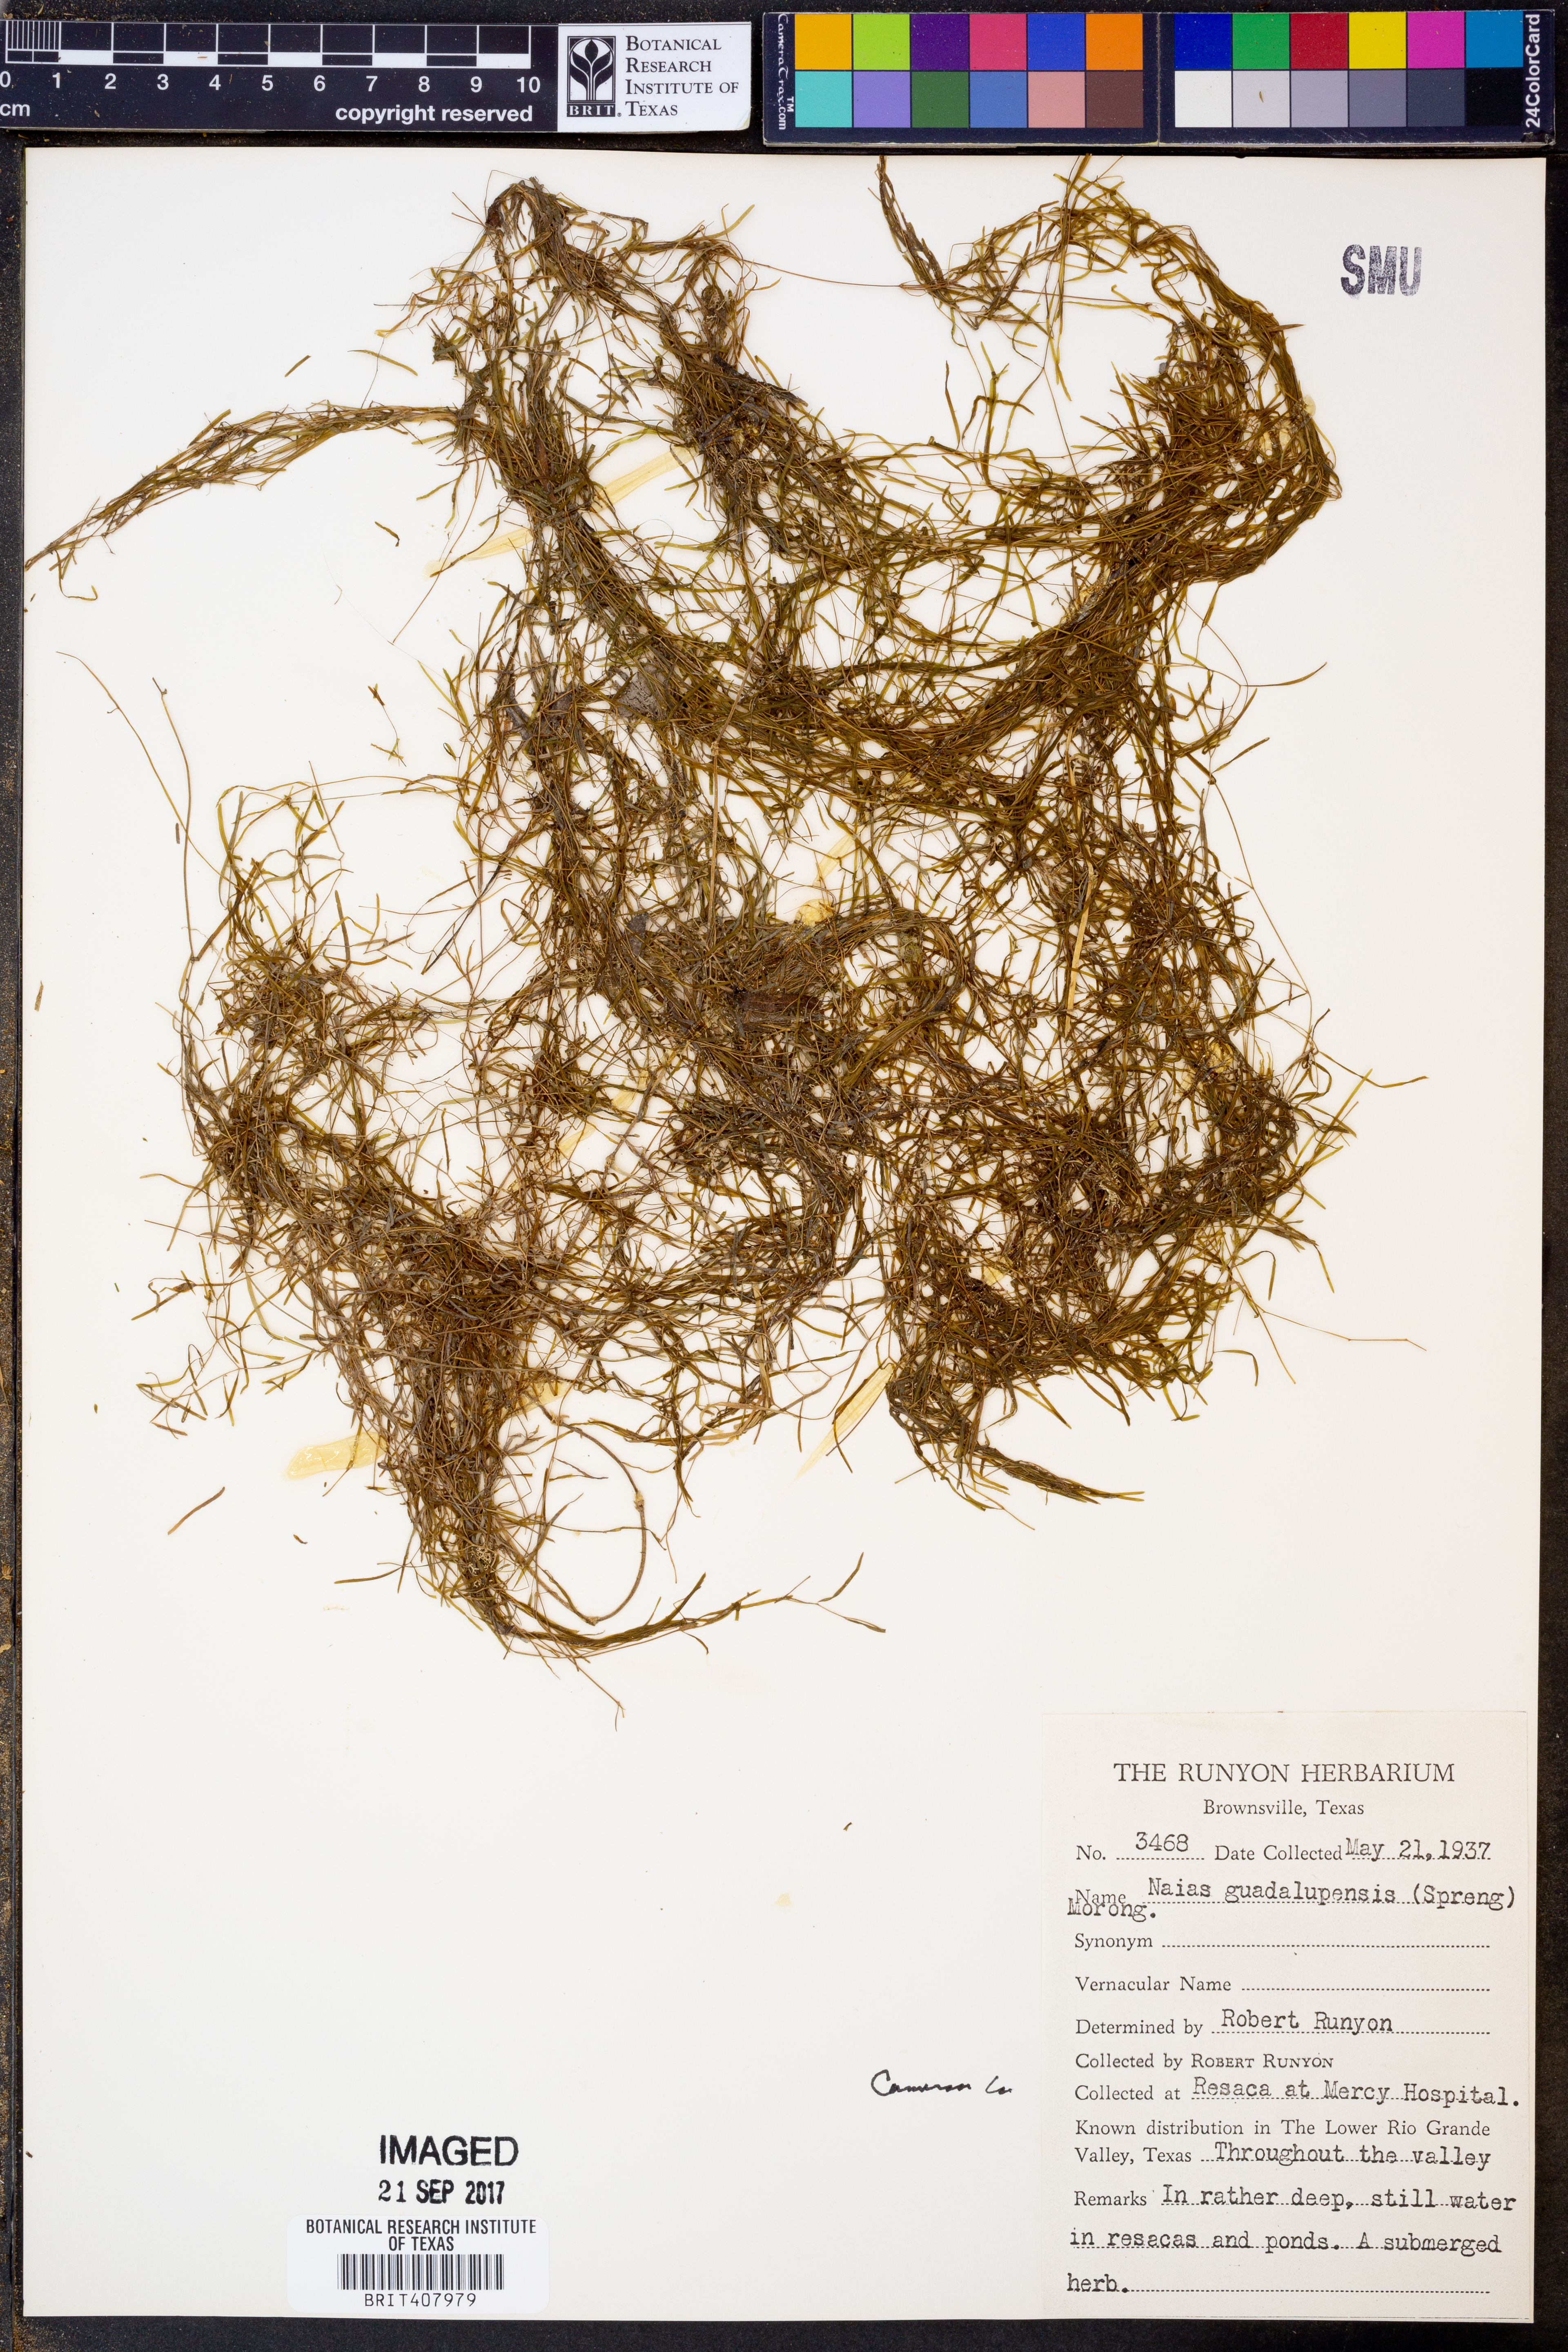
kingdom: Plantae
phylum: Tracheophyta
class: Liliopsida
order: Alismatales
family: Hydrocharitaceae
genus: Najas
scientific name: Najas guadalupensis
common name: Southern naiad
